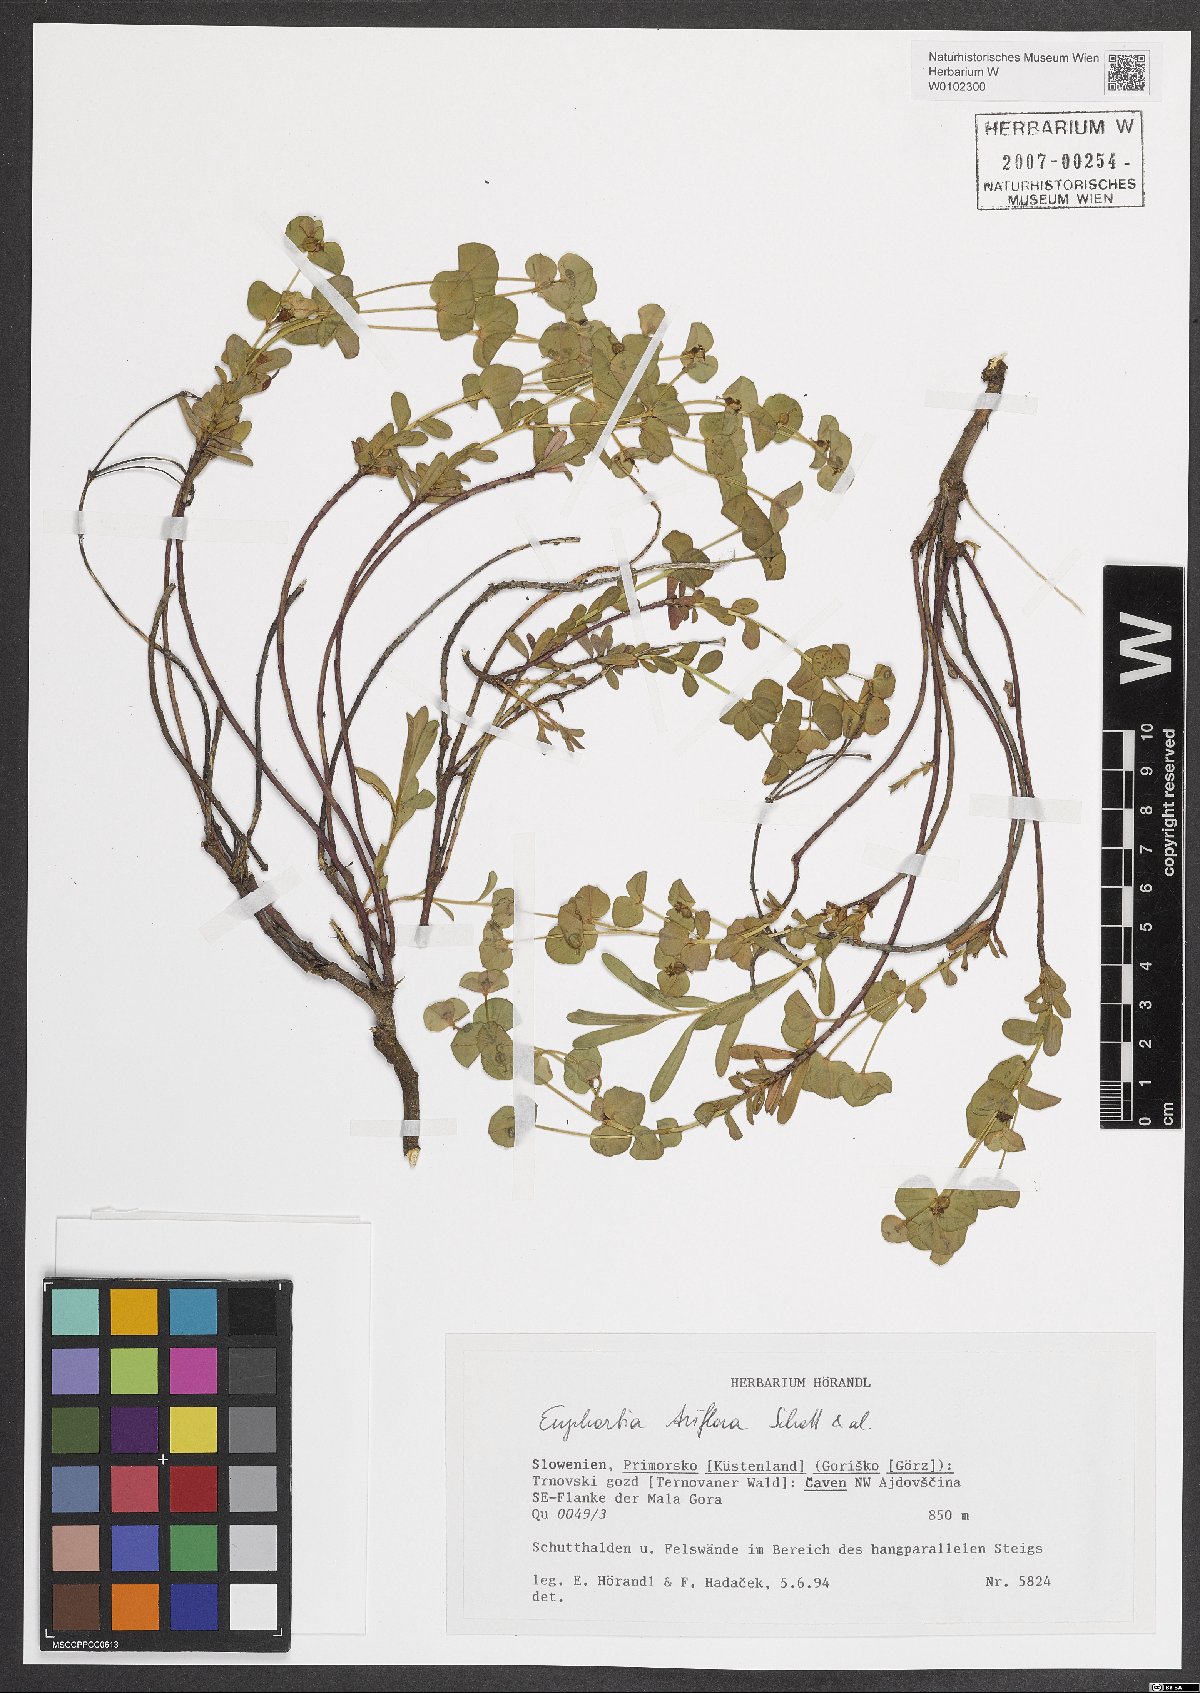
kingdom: Plantae
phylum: Tracheophyta
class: Magnoliopsida
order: Malpighiales
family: Euphorbiaceae
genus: Euphorbia
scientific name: Euphorbia triflora
